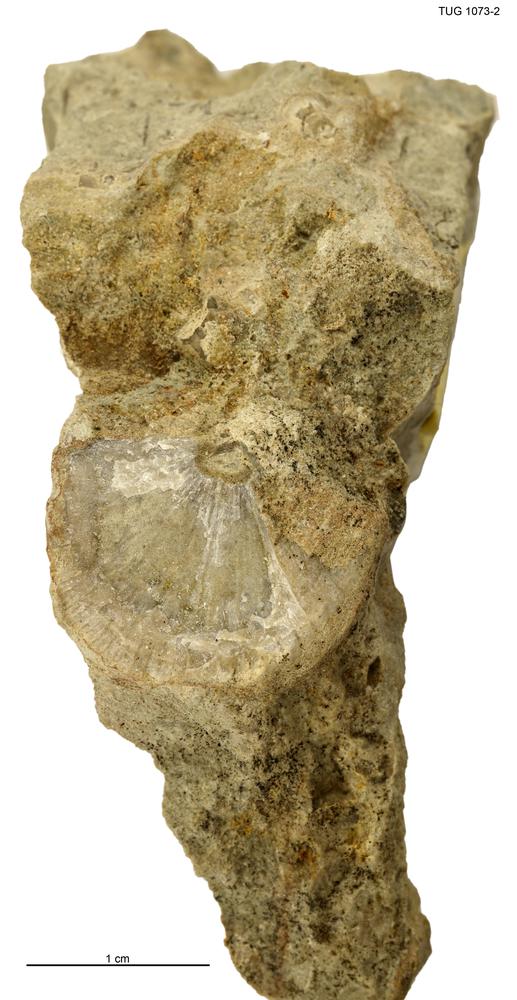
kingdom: Animalia
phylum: Brachiopoda
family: Gonambonitidae
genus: Estlandia
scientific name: Estlandia
